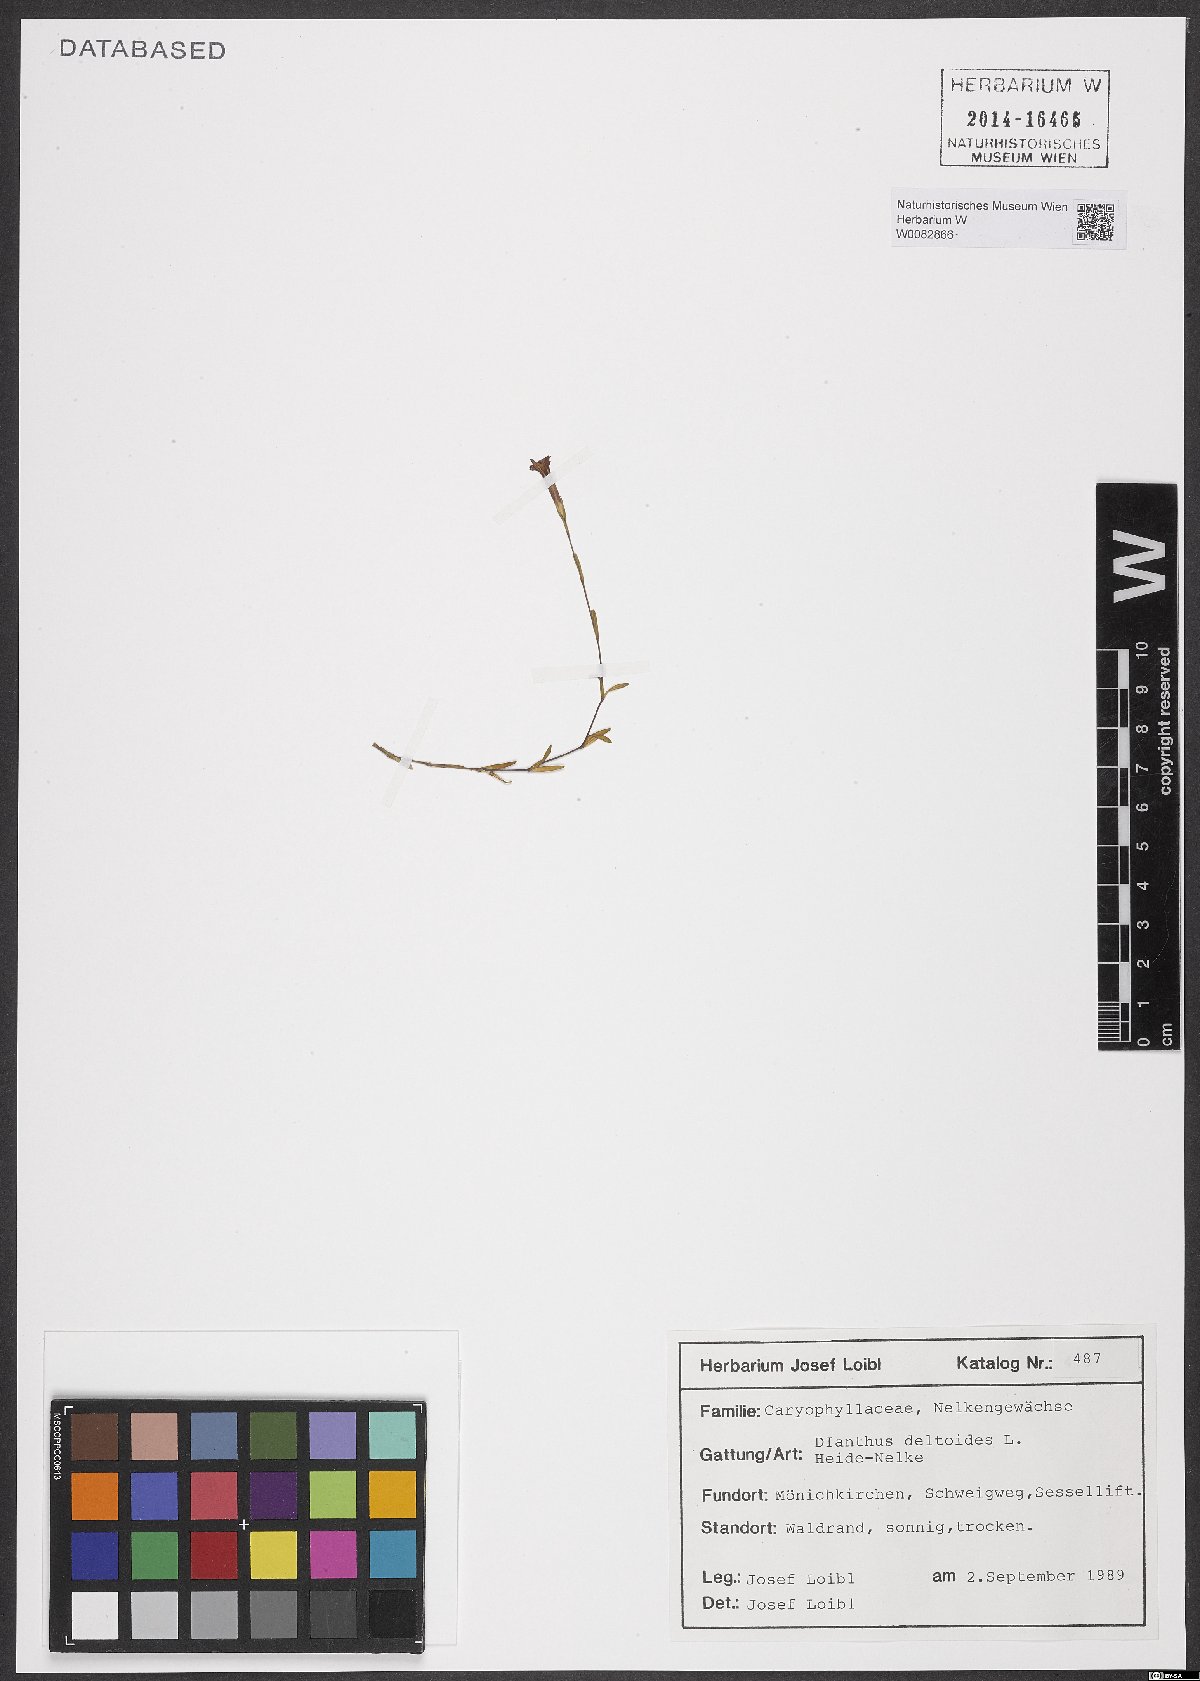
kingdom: Plantae
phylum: Tracheophyta
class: Magnoliopsida
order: Caryophyllales
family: Caryophyllaceae
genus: Dianthus
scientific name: Dianthus deltoides
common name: Maiden pink
